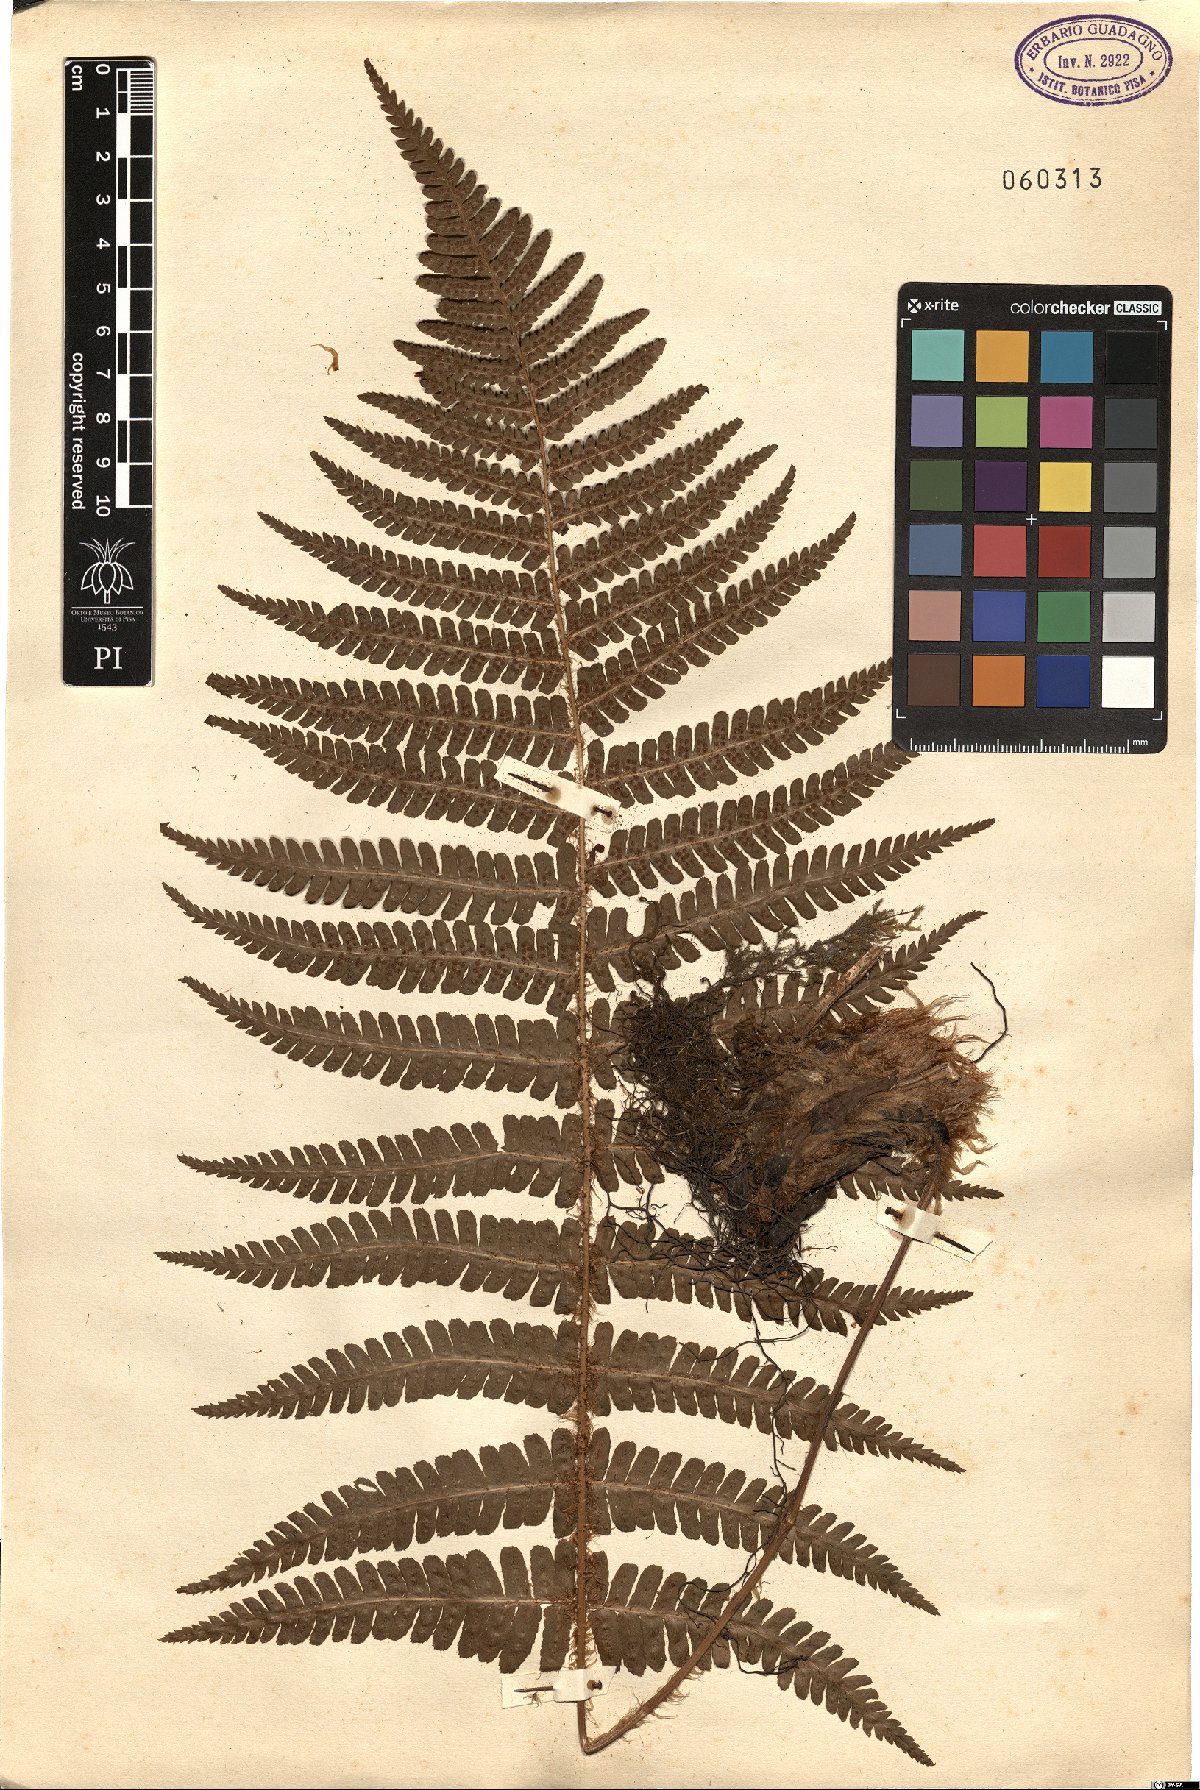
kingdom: Plantae
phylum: Tracheophyta
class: Polypodiopsida
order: Polypodiales
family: Dryopteridaceae
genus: Dryopteris
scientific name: Dryopteris
